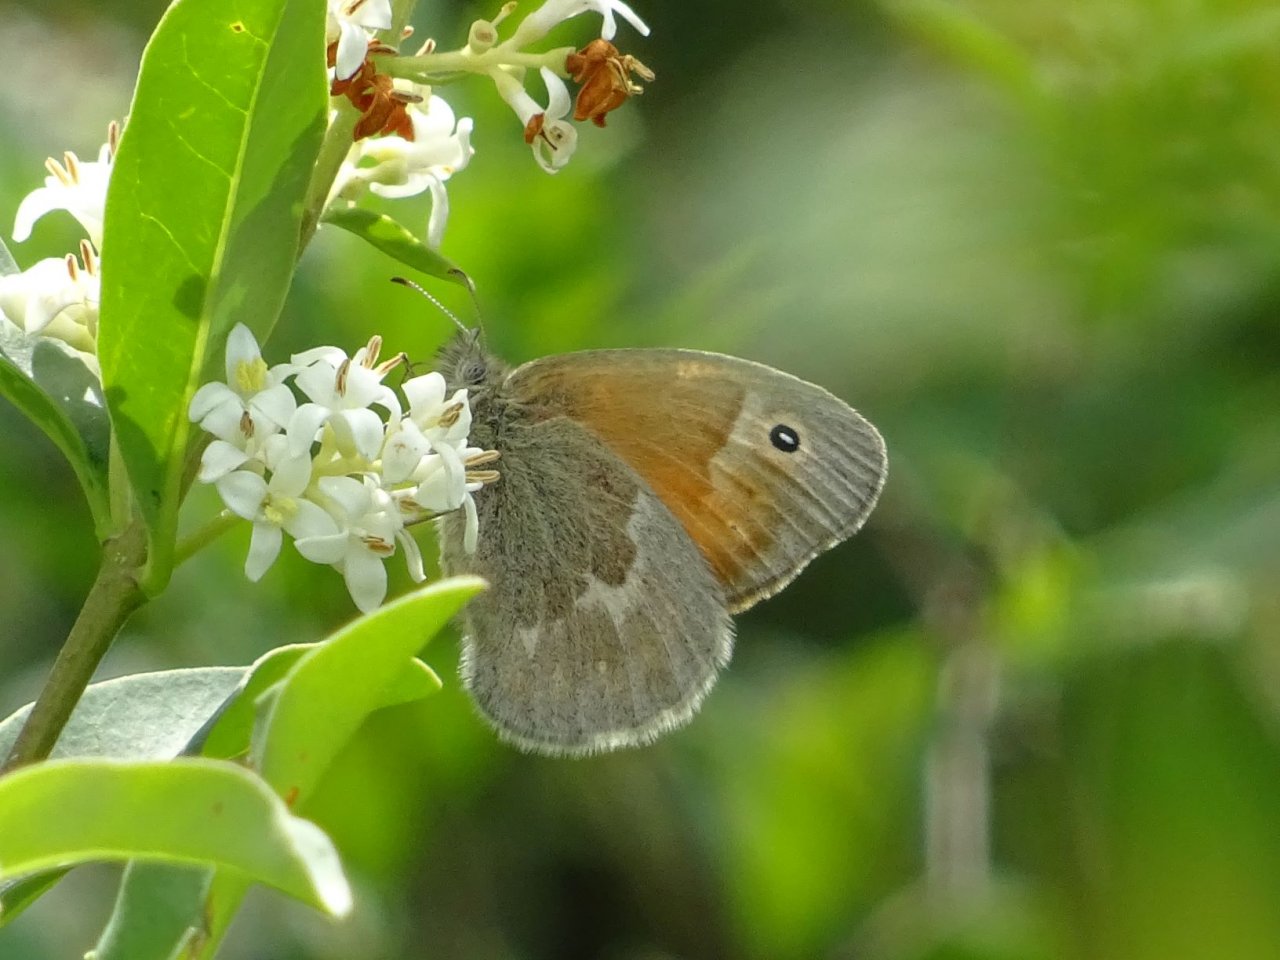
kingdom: Animalia
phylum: Arthropoda
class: Insecta
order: Lepidoptera
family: Nymphalidae
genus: Coenonympha
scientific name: Coenonympha tullia
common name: Large Heath
